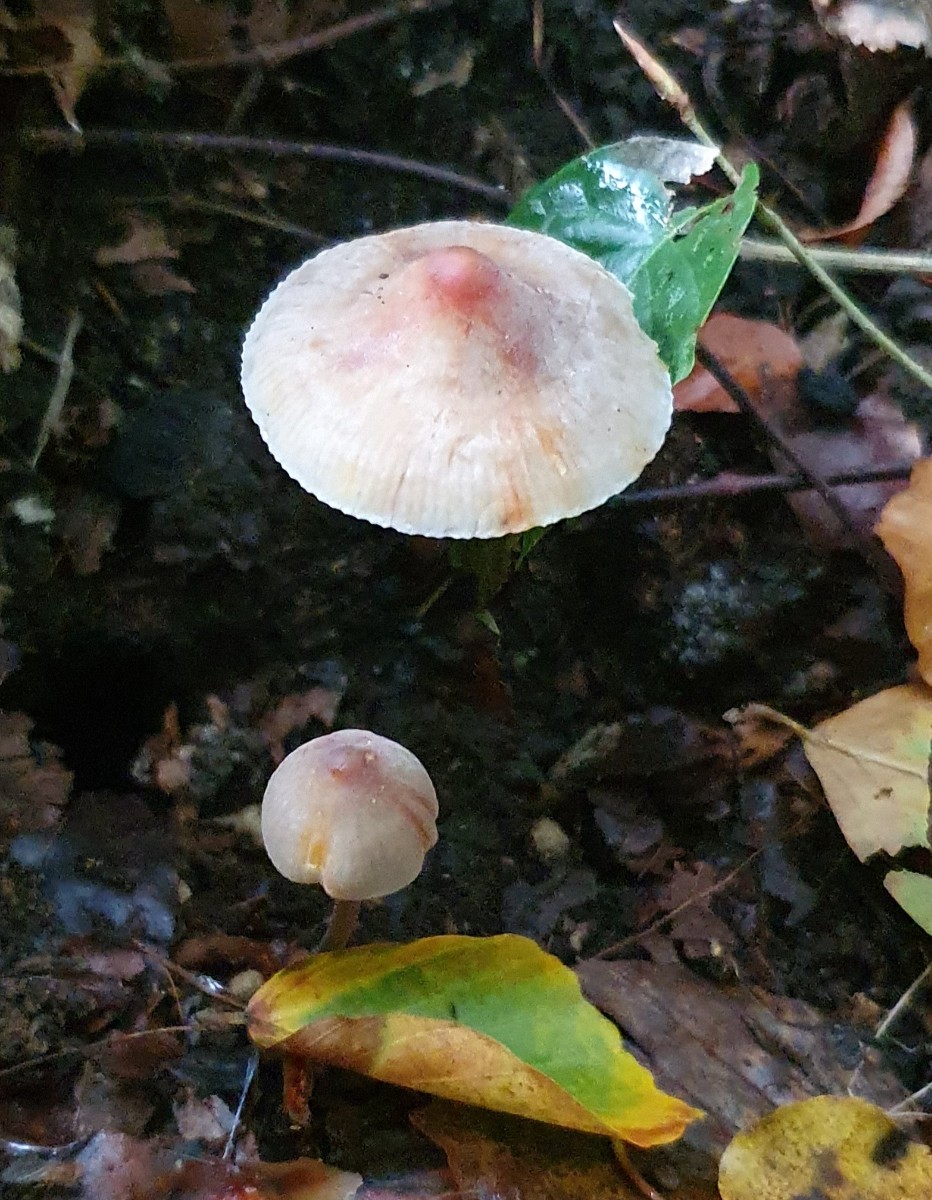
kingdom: Fungi
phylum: Basidiomycota
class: Agaricomycetes
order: Agaricales
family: Mycenaceae
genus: Mycena
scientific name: Mycena crocata
